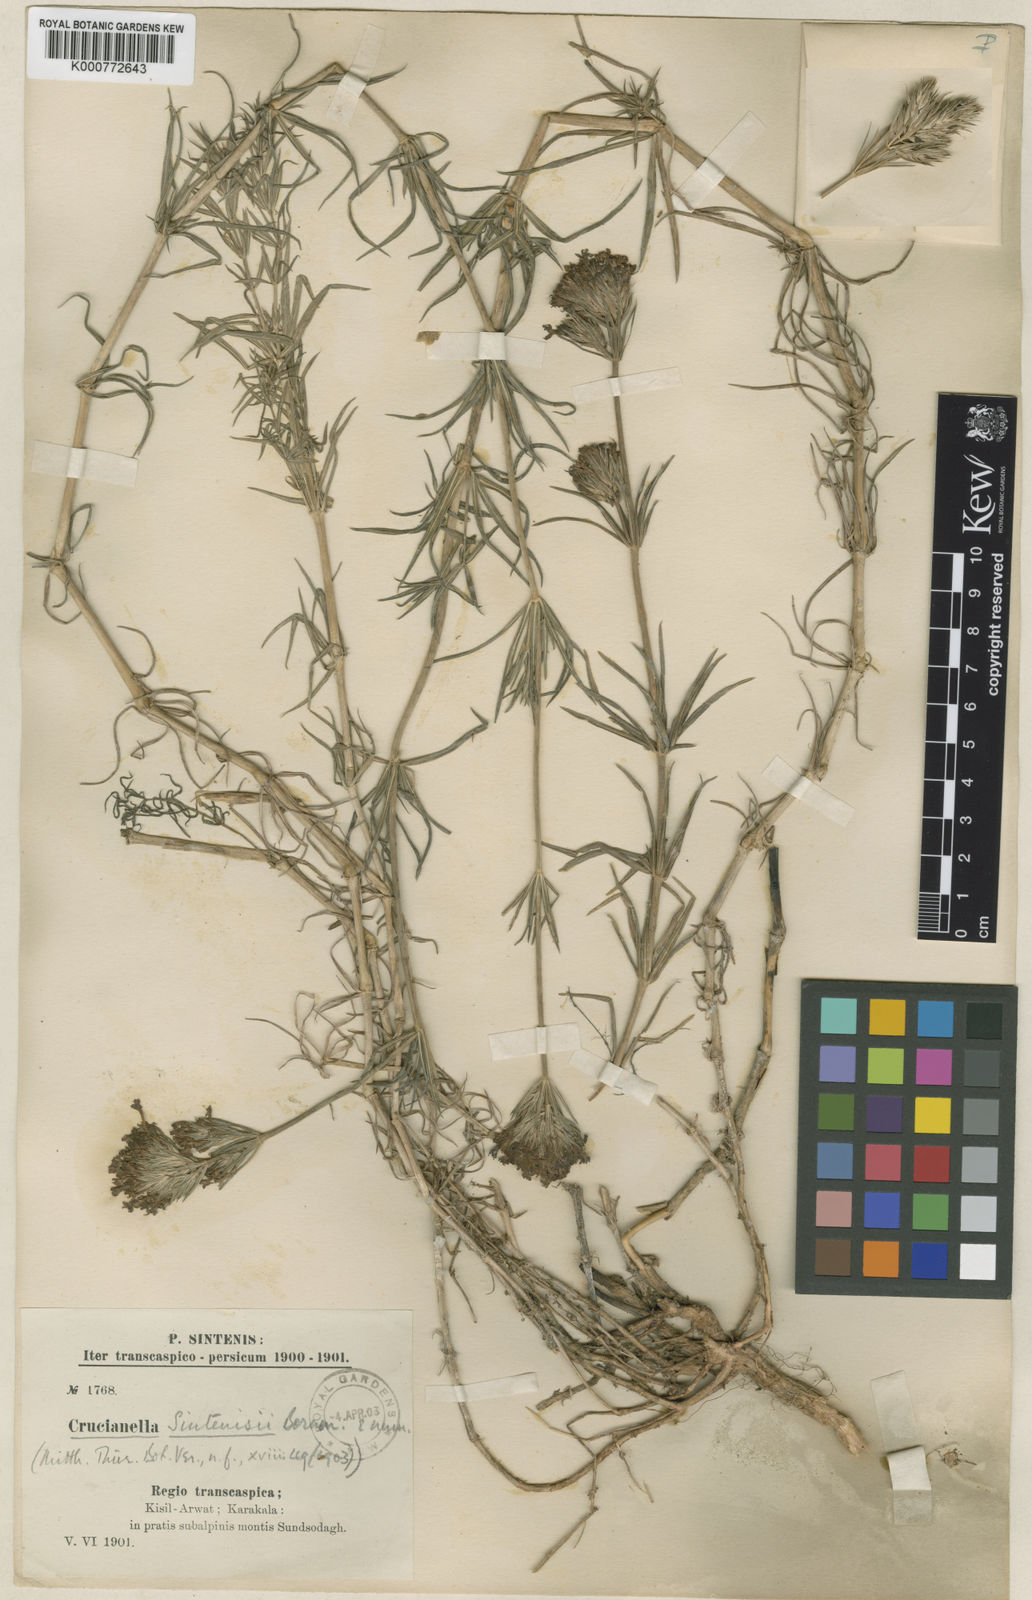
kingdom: Plantae
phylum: Tracheophyta
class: Magnoliopsida
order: Gentianales
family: Rubiaceae
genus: Crucianella
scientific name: Crucianella sintenisii
